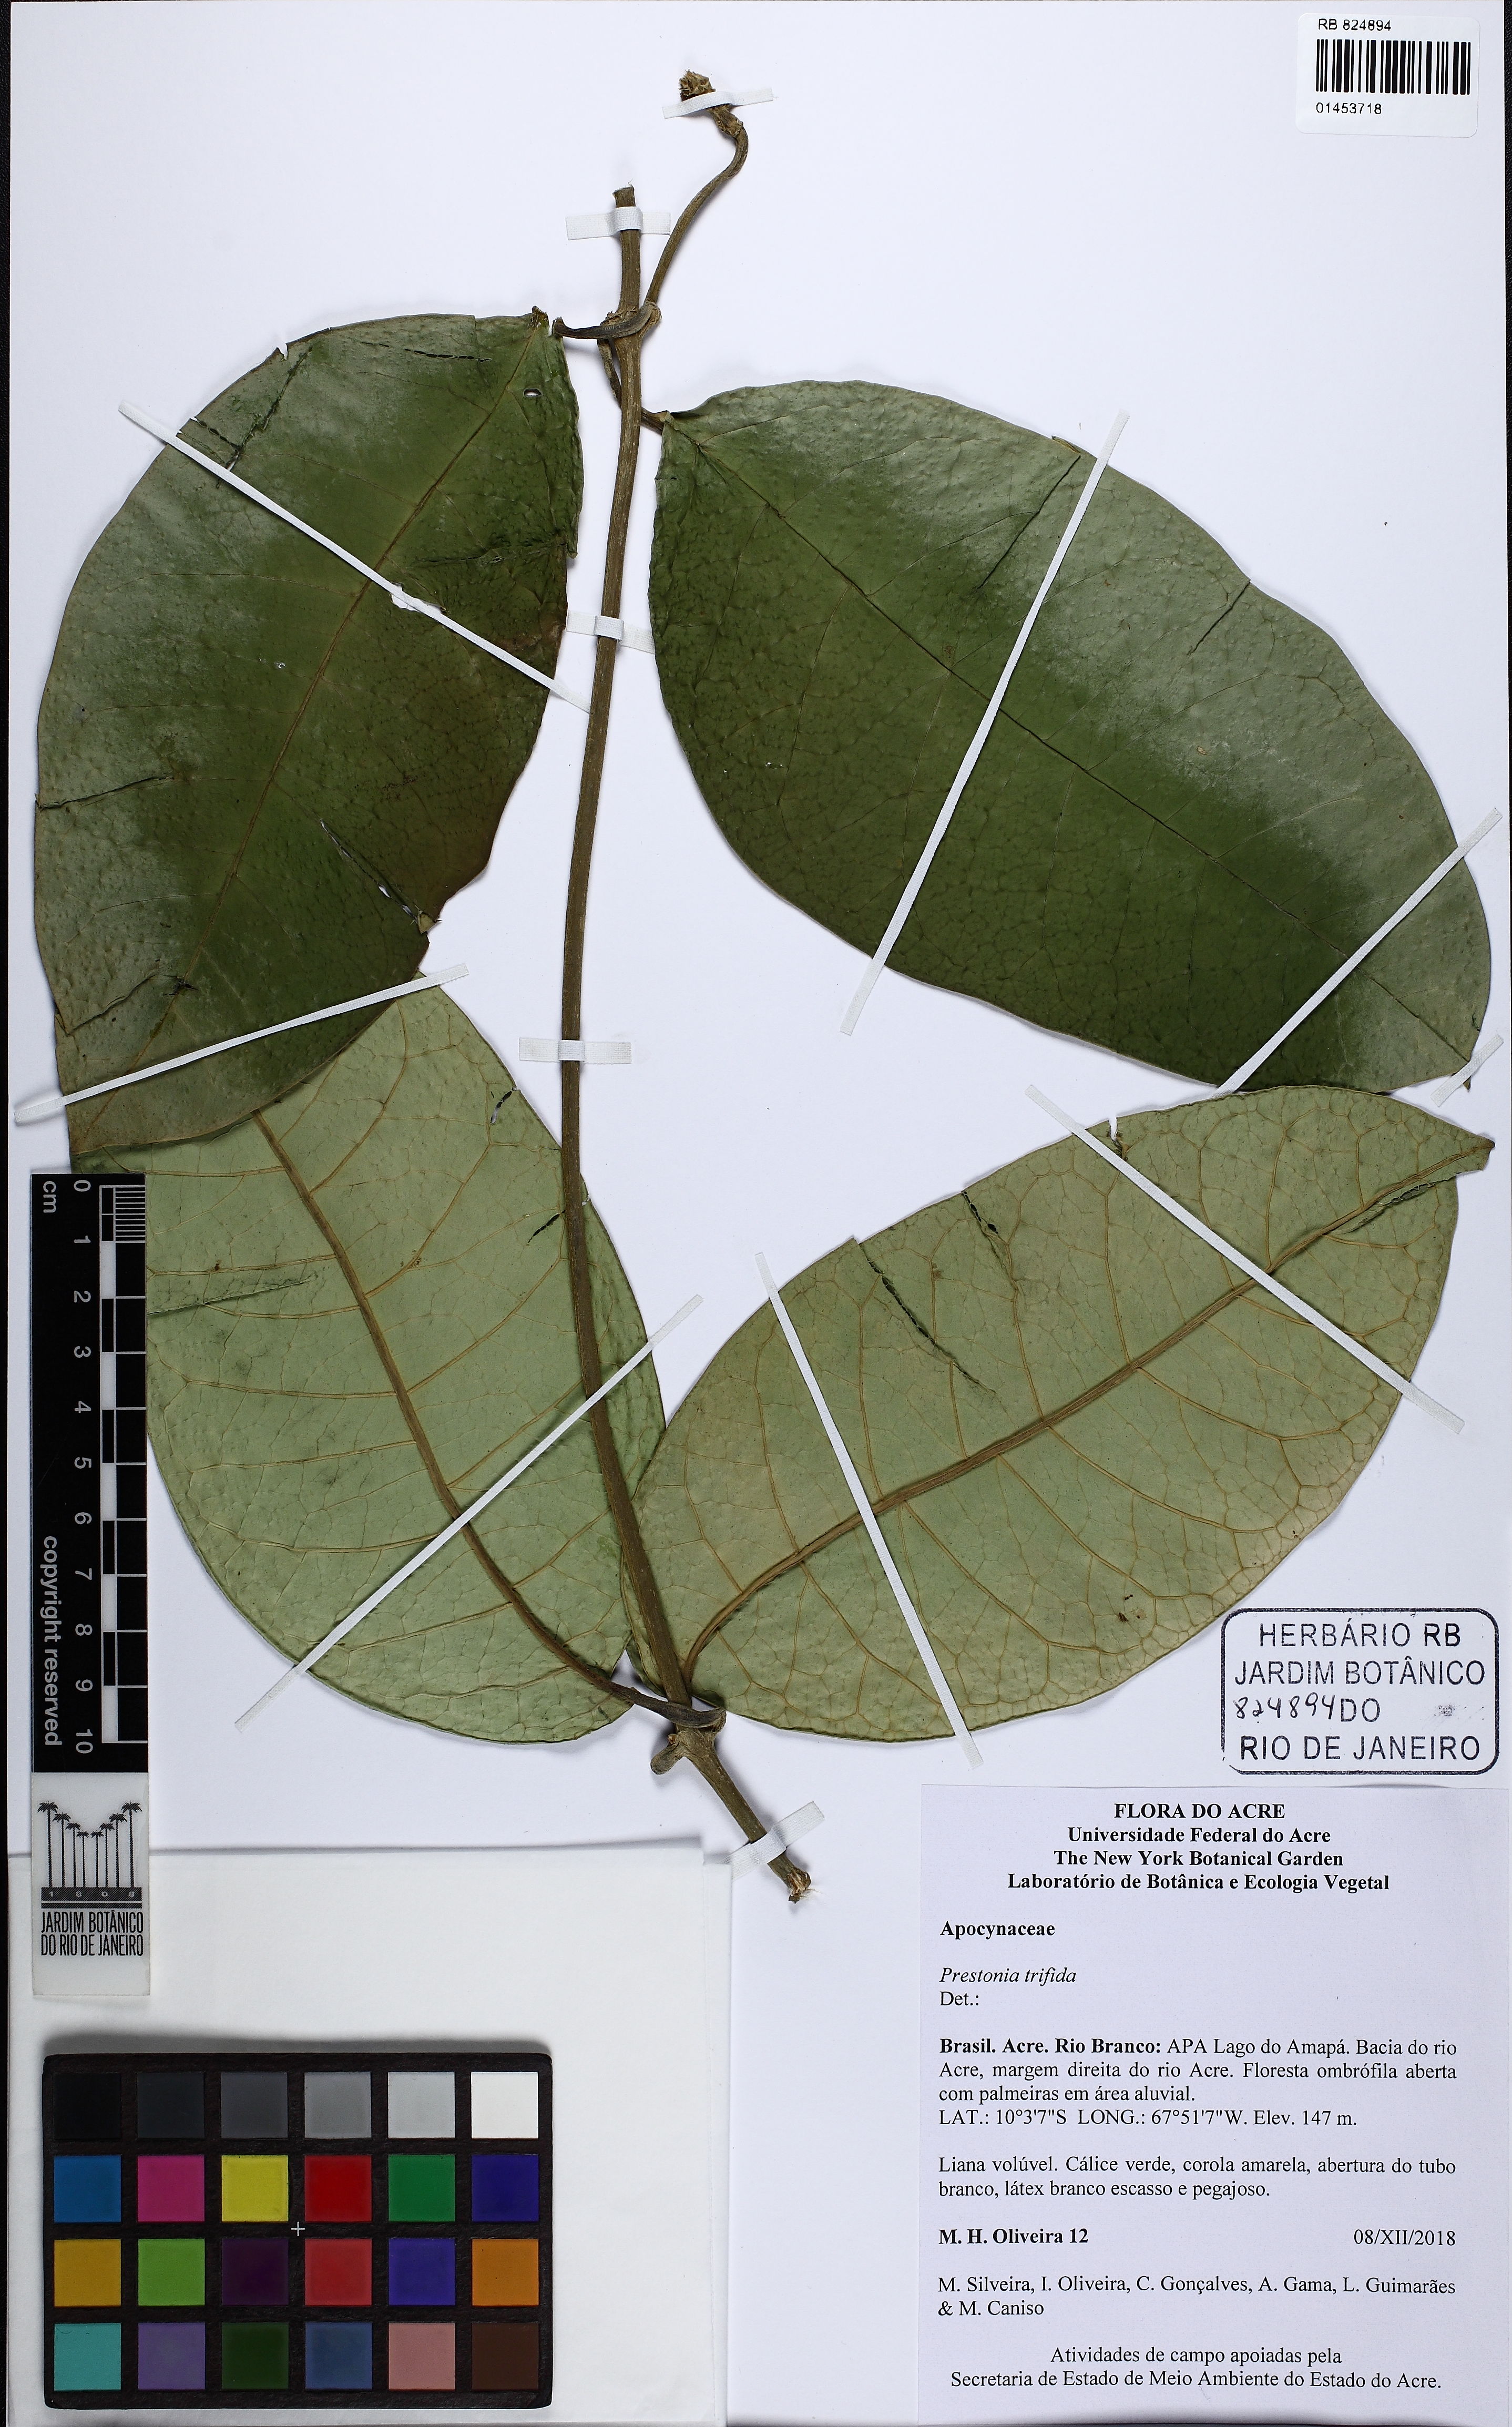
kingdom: Plantae
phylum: Tracheophyta
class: Magnoliopsida
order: Gentianales
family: Apocynaceae
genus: Prestonia
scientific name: Prestonia trifida
